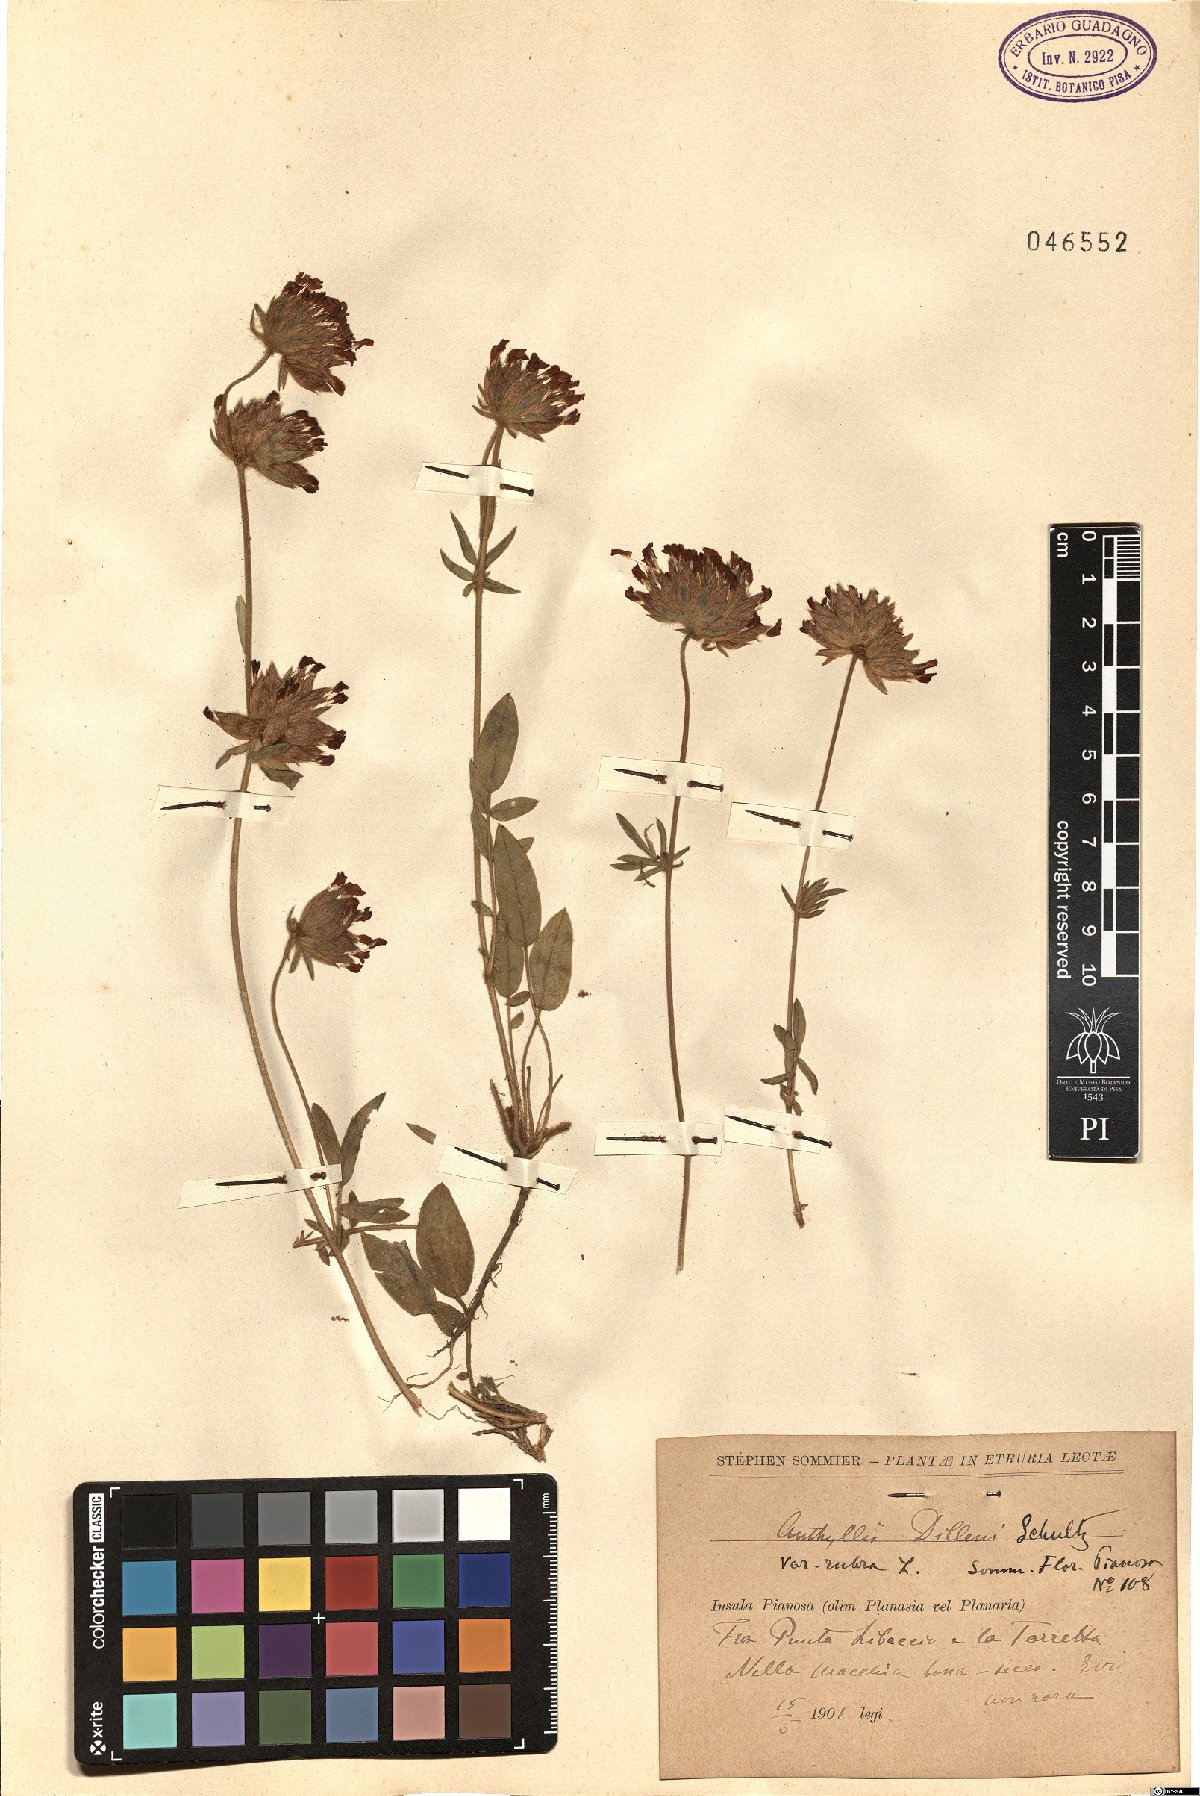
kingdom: Plantae
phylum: Tracheophyta
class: Magnoliopsida
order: Fabales
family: Fabaceae
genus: Anthyllis
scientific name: Anthyllis vulneraria
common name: Kidney vetch
